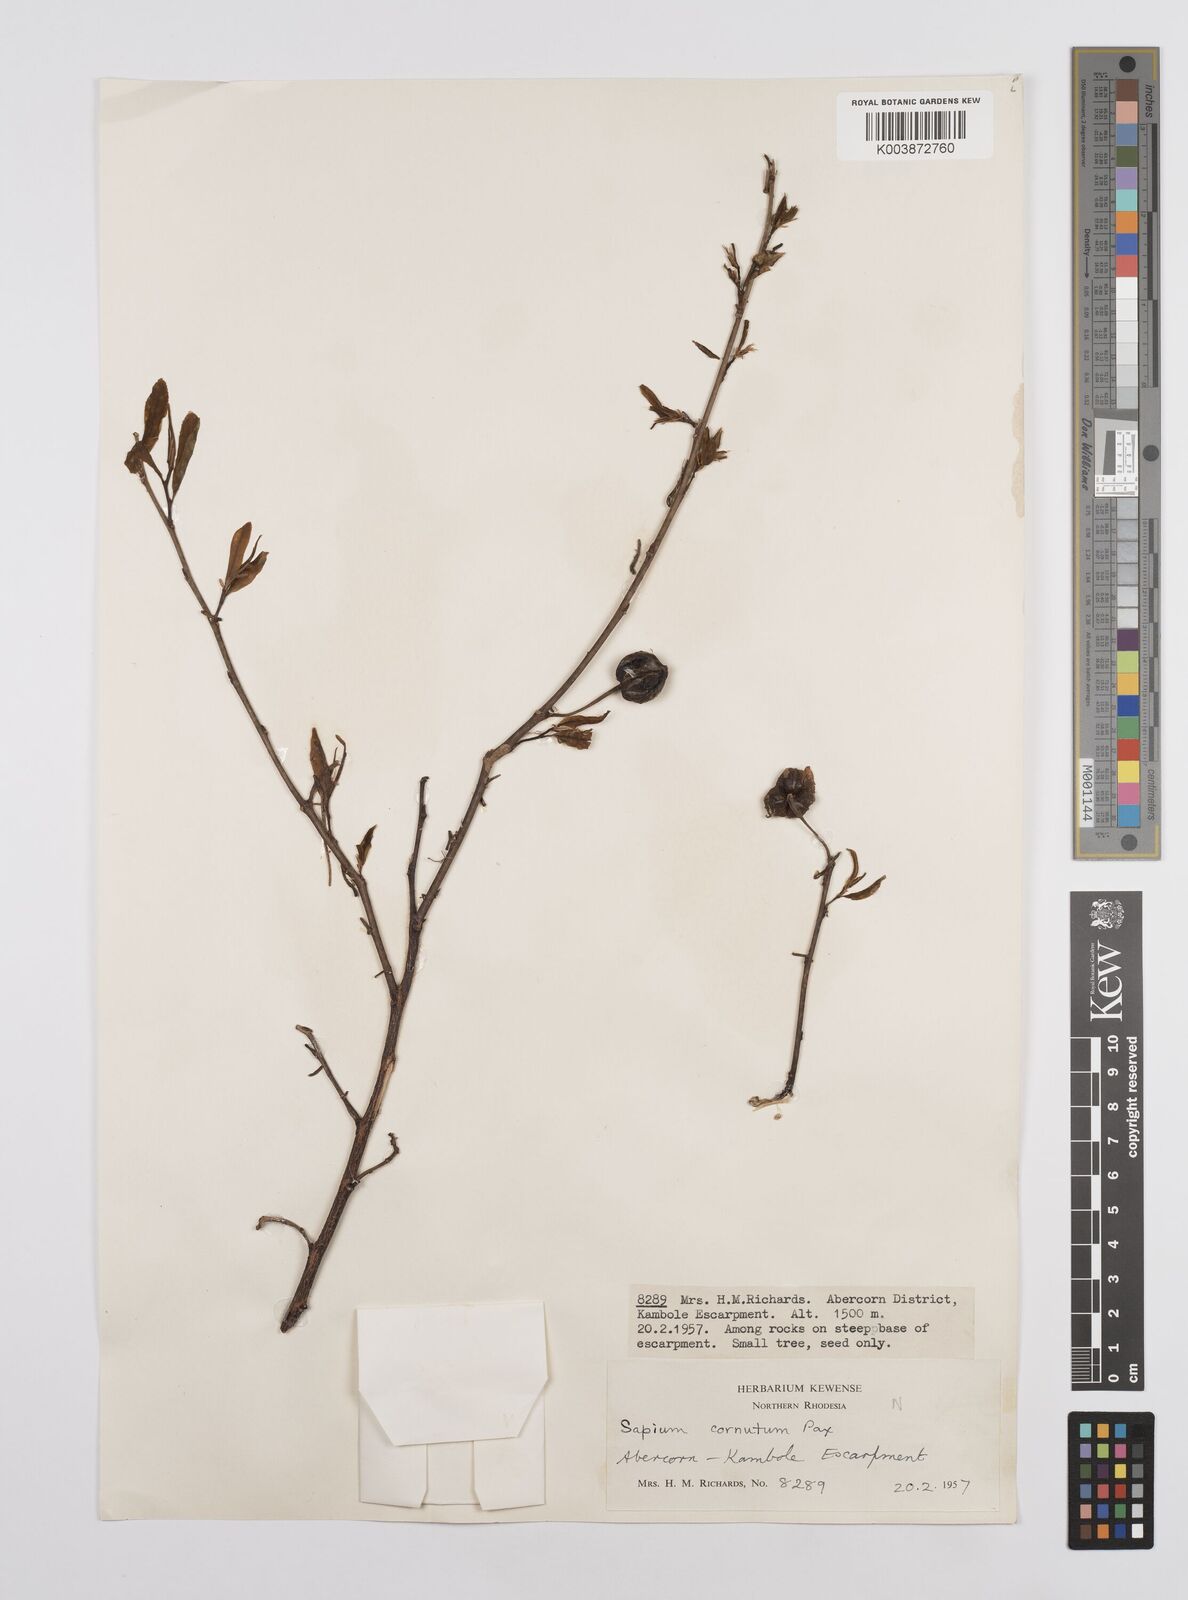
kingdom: Plantae
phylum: Tracheophyta
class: Magnoliopsida
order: Malpighiales
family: Euphorbiaceae
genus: Sclerocroton
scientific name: Sclerocroton schmitzii
